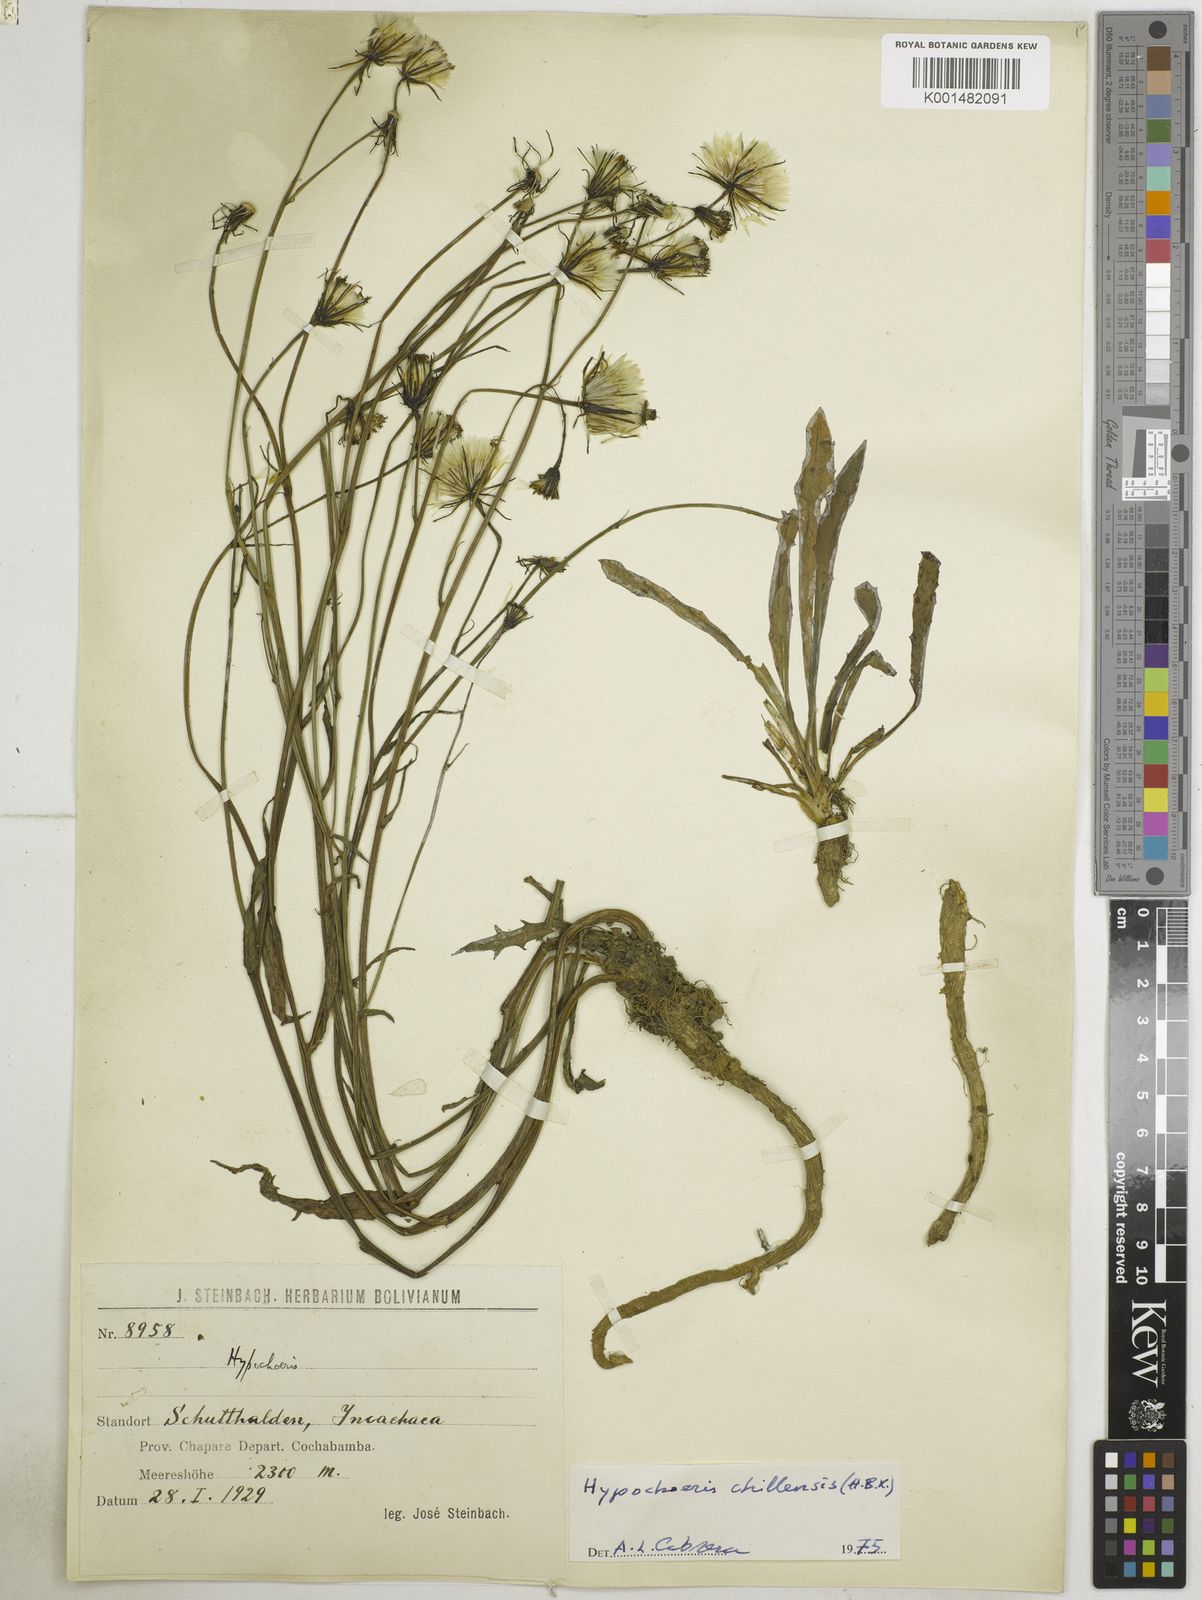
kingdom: Plantae
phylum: Tracheophyta
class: Magnoliopsida
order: Asterales
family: Asteraceae
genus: Hypochaeris
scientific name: Hypochaeris chillensis
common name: Brazilian cat's ear
